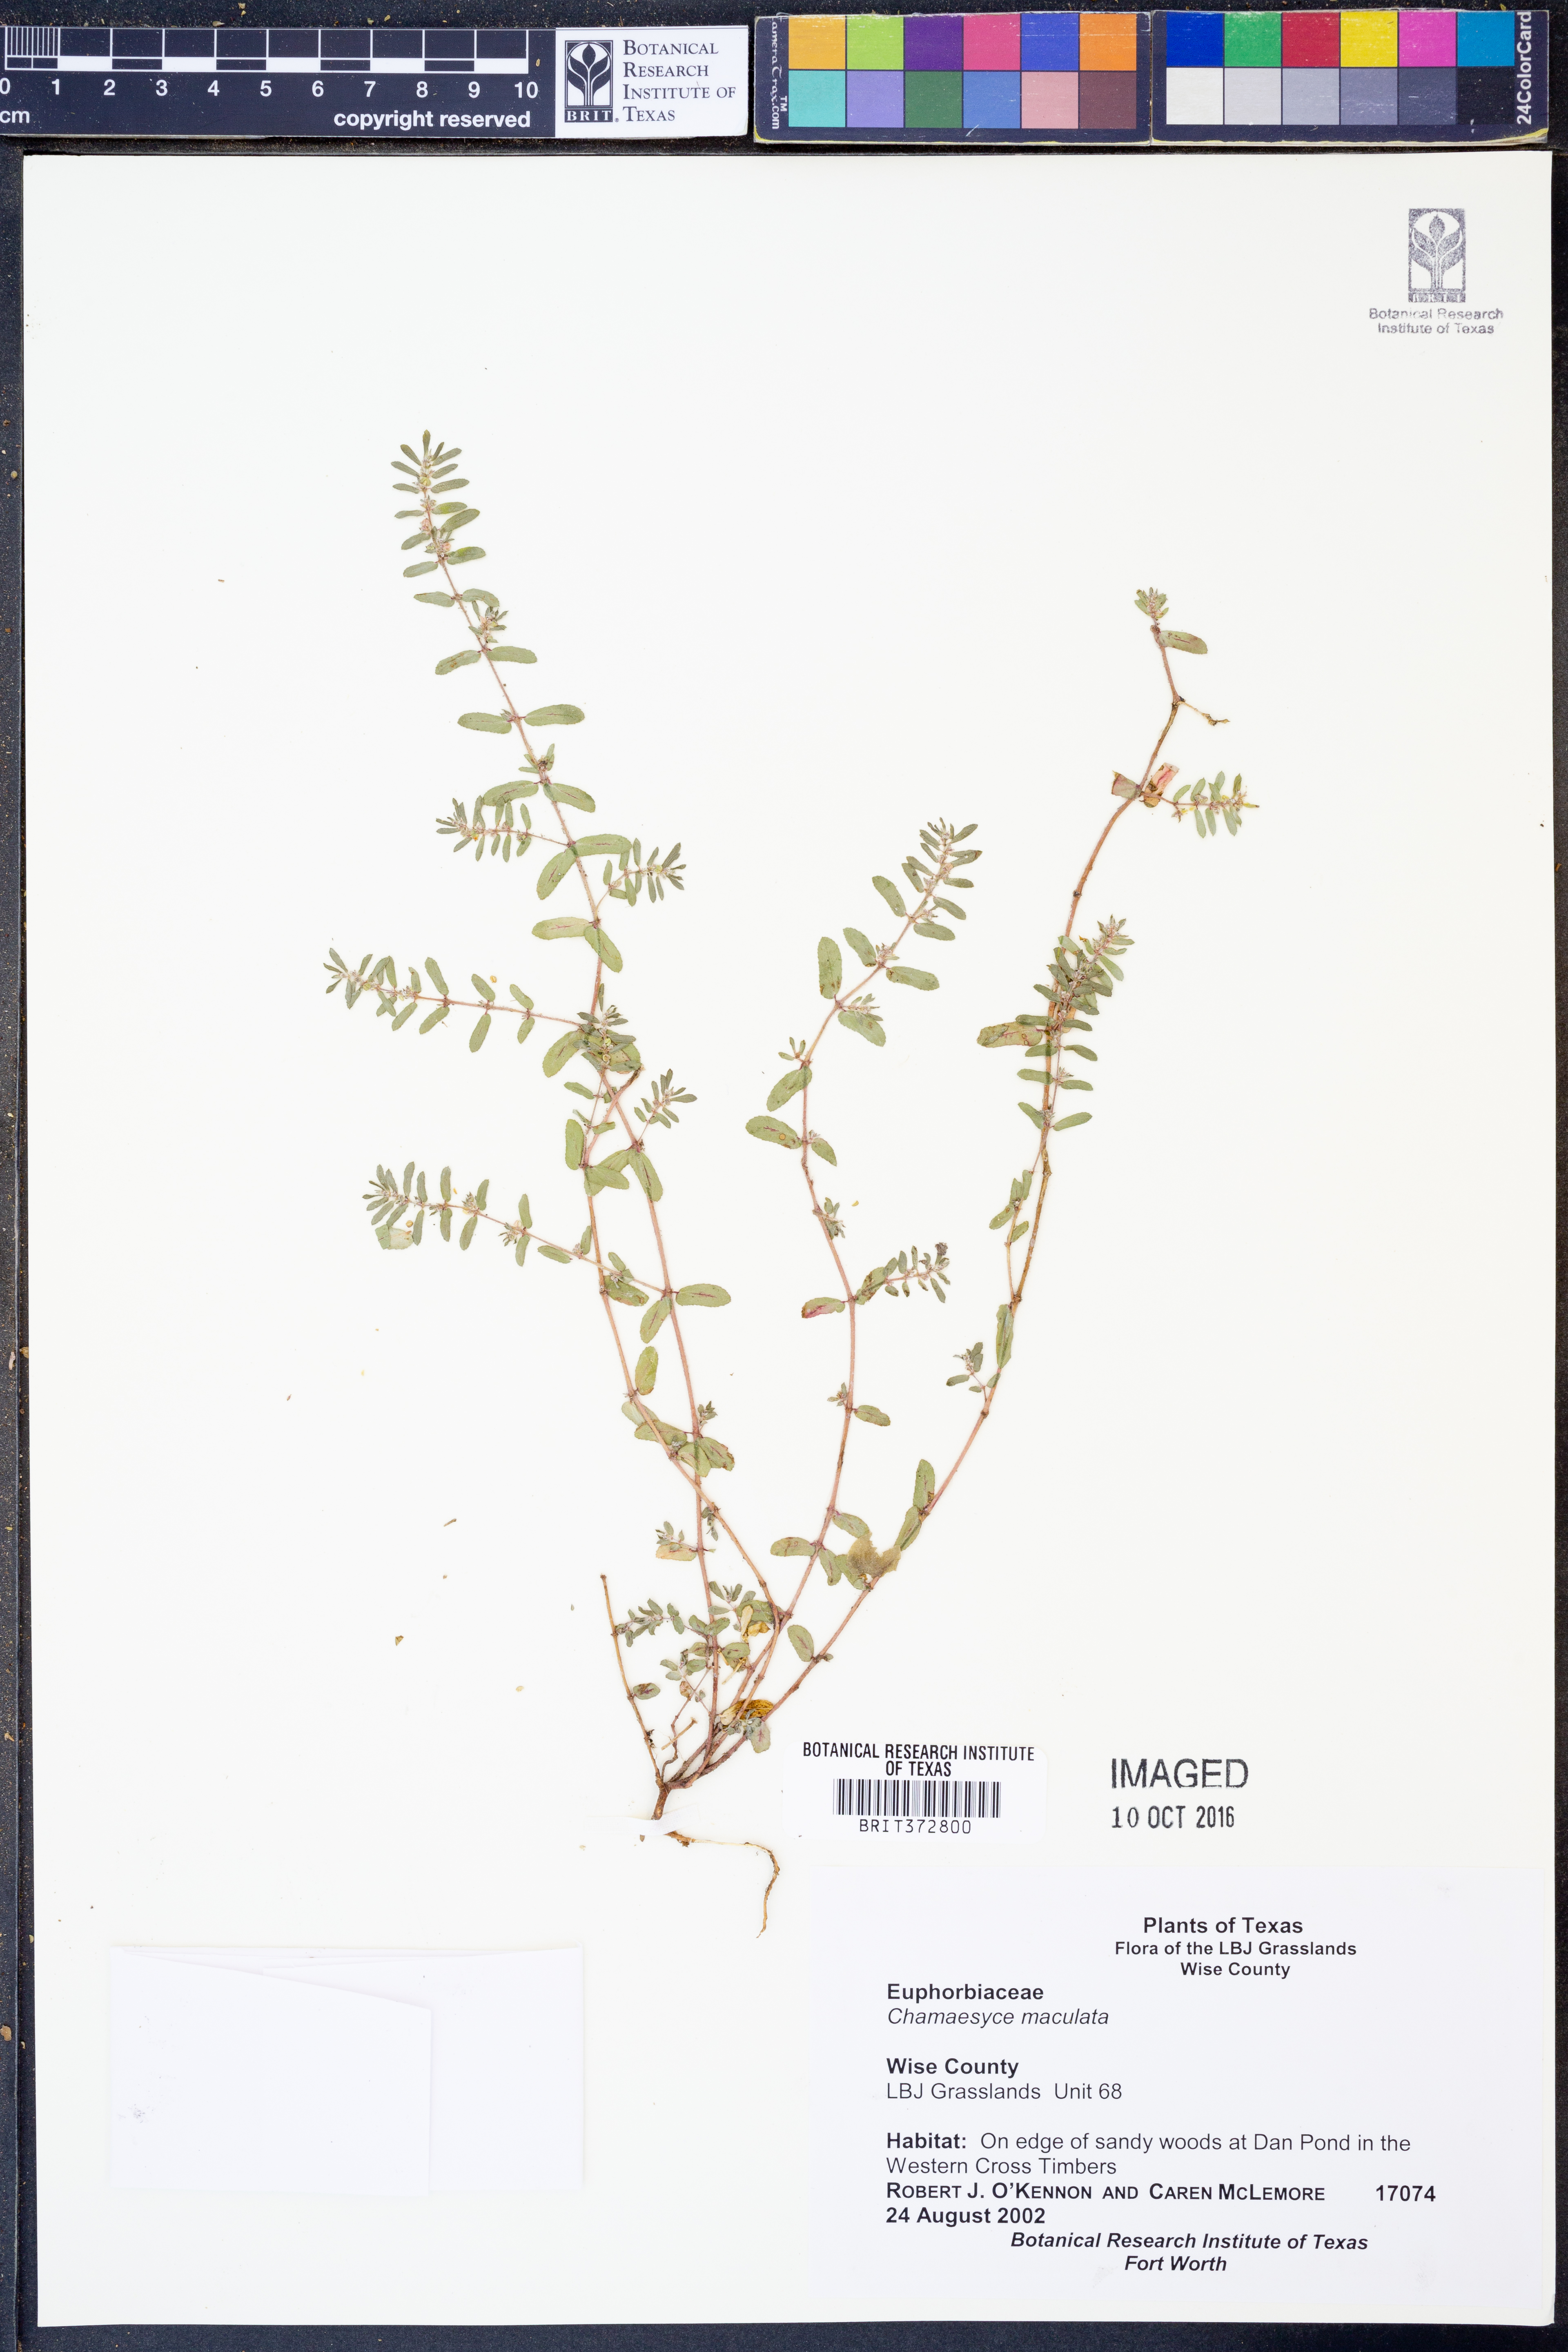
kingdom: Plantae
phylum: Tracheophyta
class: Magnoliopsida
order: Malpighiales
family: Euphorbiaceae
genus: Euphorbia
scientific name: Euphorbia maculata
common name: Spotted spurge
